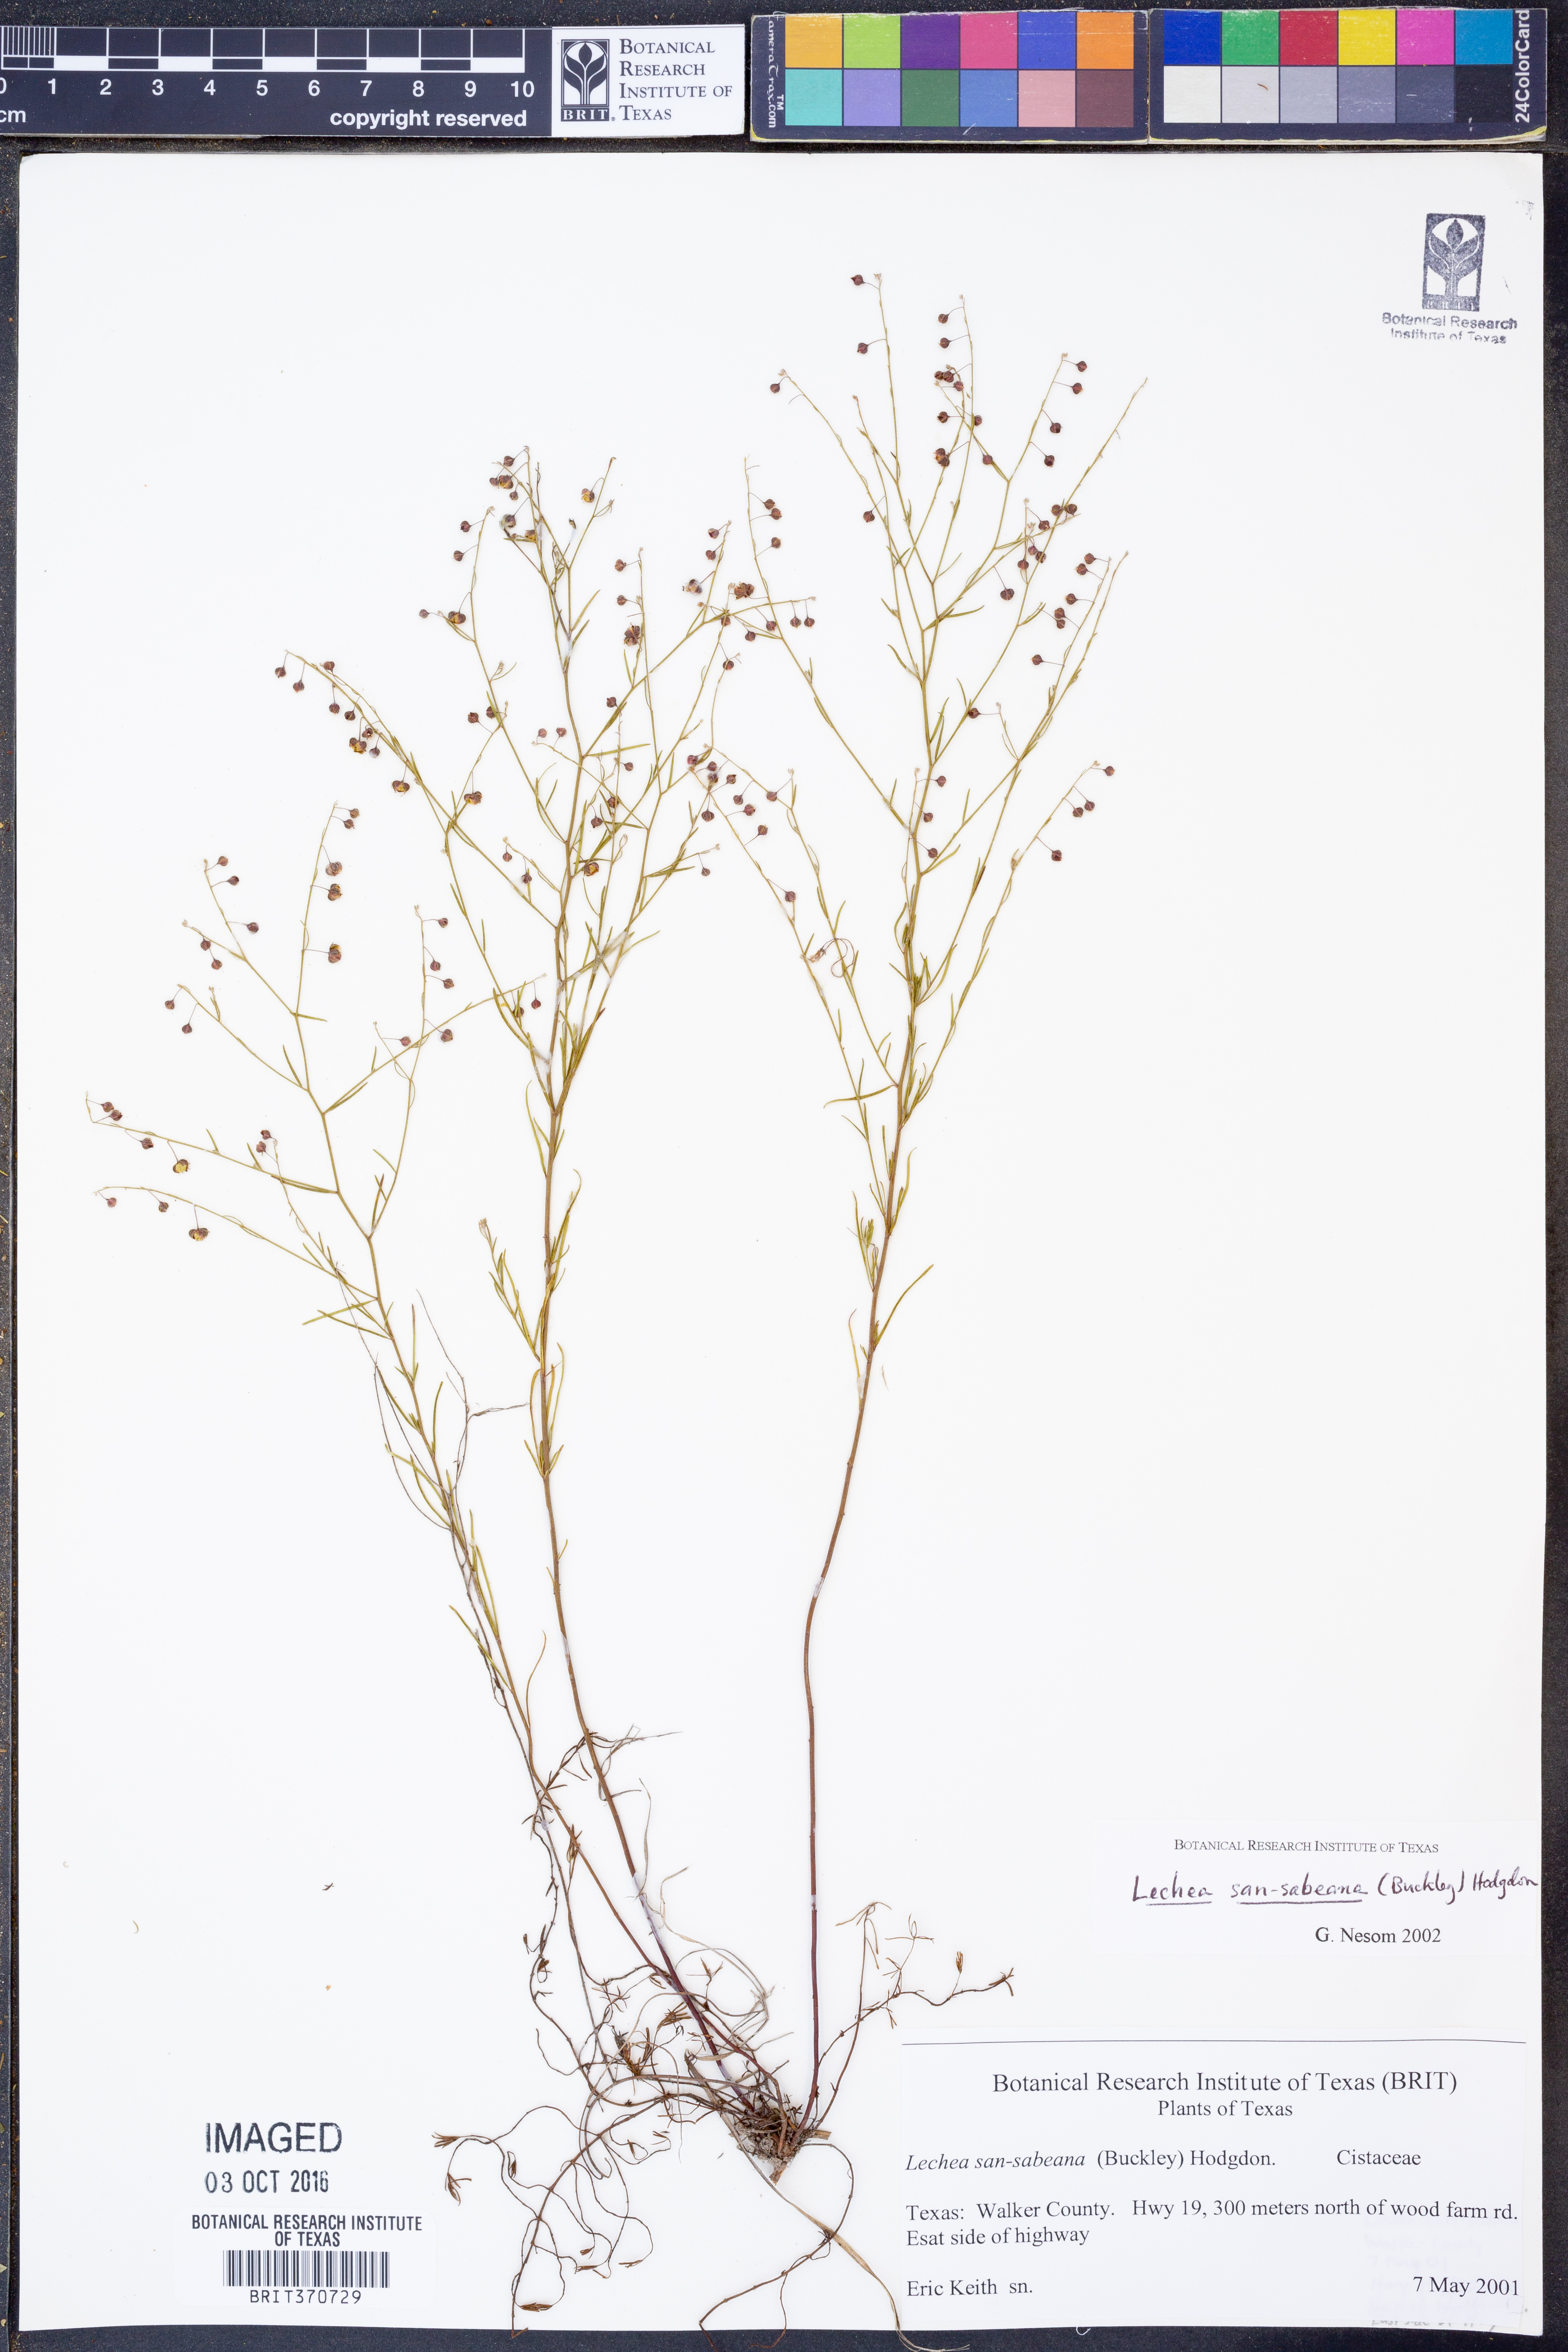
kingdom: Plantae
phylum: Tracheophyta
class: Magnoliopsida
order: Malvales
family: Cistaceae
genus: Lechea
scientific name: Lechea san-sabeana
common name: San saba pinweed
